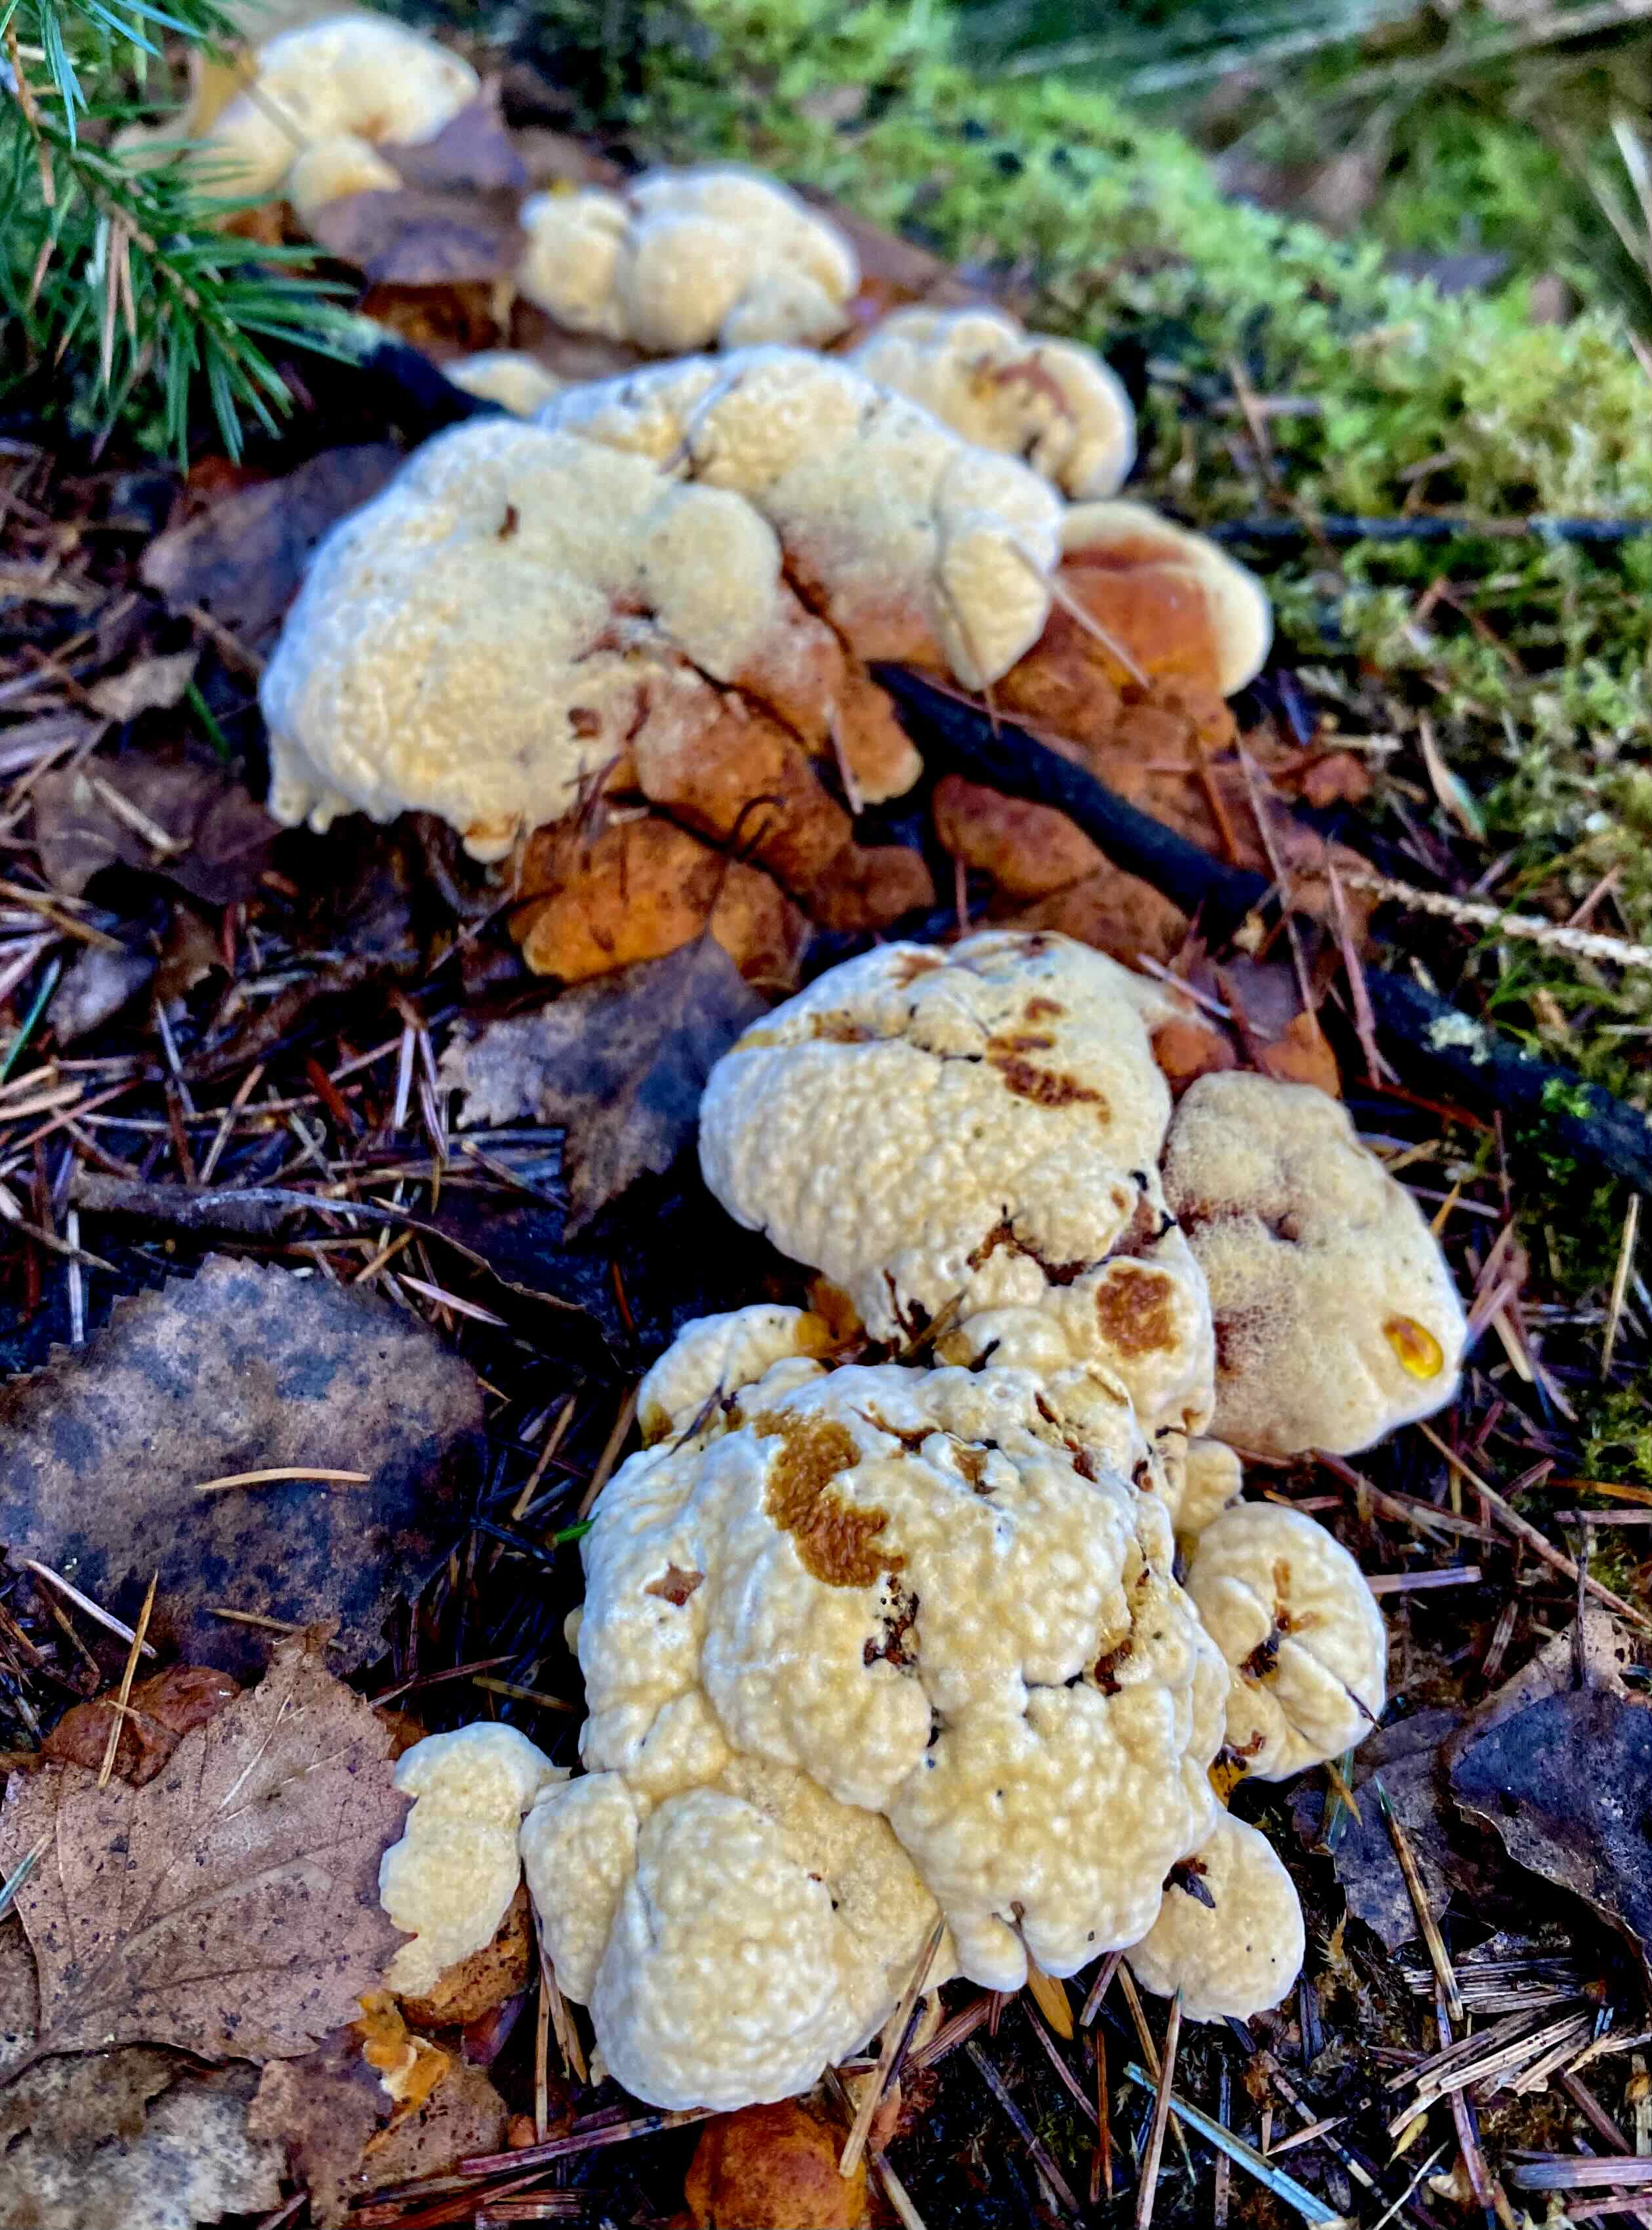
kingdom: Fungi
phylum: Basidiomycota
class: Agaricomycetes
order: Gloeophyllales
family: Gloeophyllaceae
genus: Gloeophyllum
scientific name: Gloeophyllum odoratum
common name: duftende korkhat
